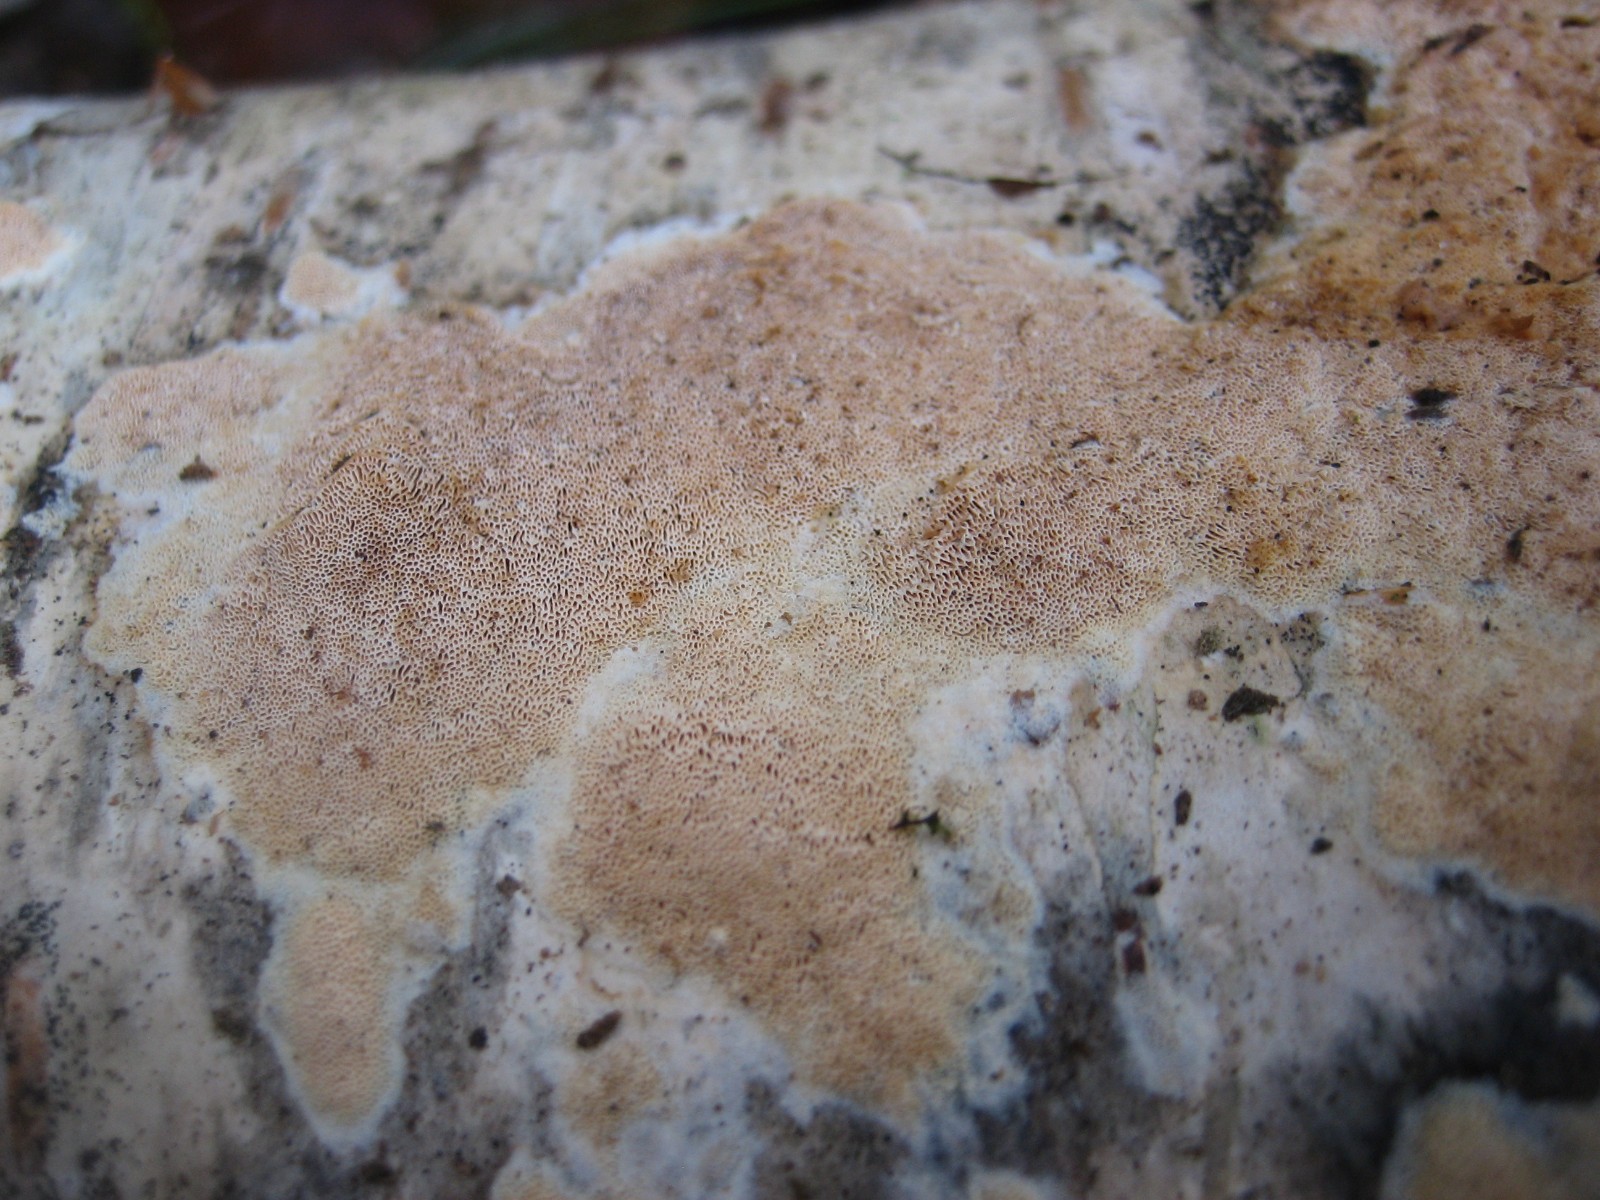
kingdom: Fungi
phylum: Basidiomycota
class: Agaricomycetes
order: Polyporales
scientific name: Polyporales
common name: poresvampordenen
